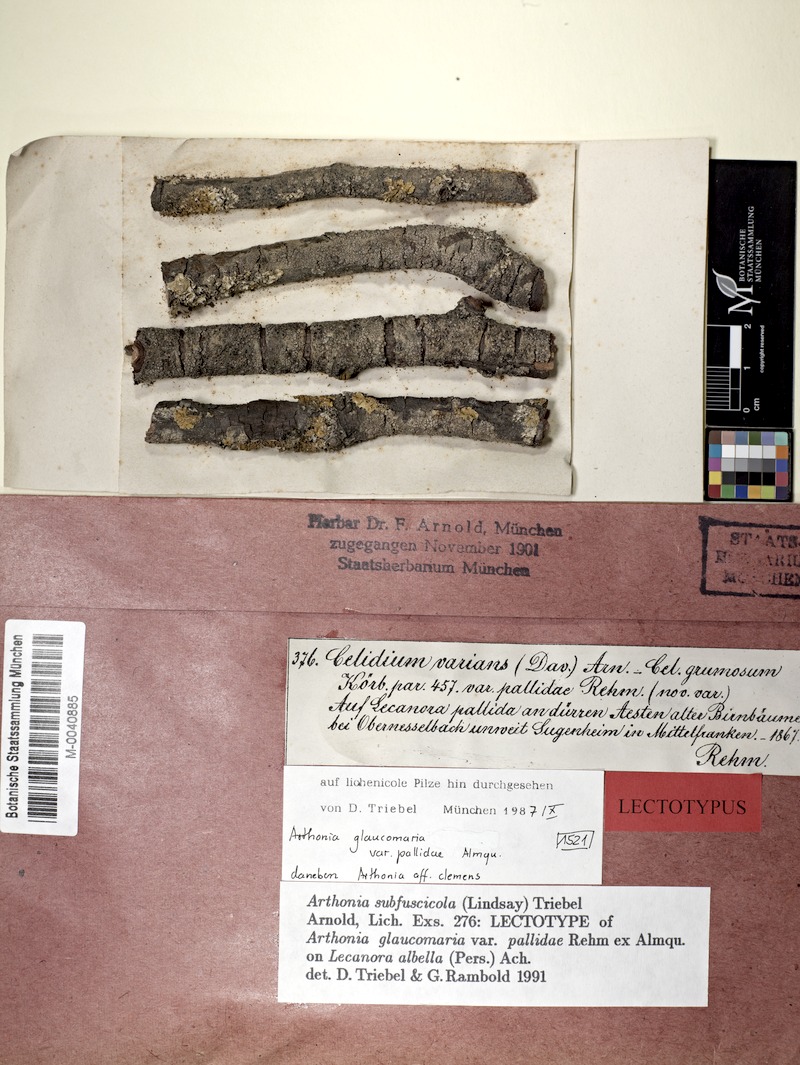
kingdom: Fungi
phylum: Ascomycota
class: Lecanoromycetes
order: Lecanorales
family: Lecanoraceae
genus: Lecanora
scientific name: Lecanora albella
